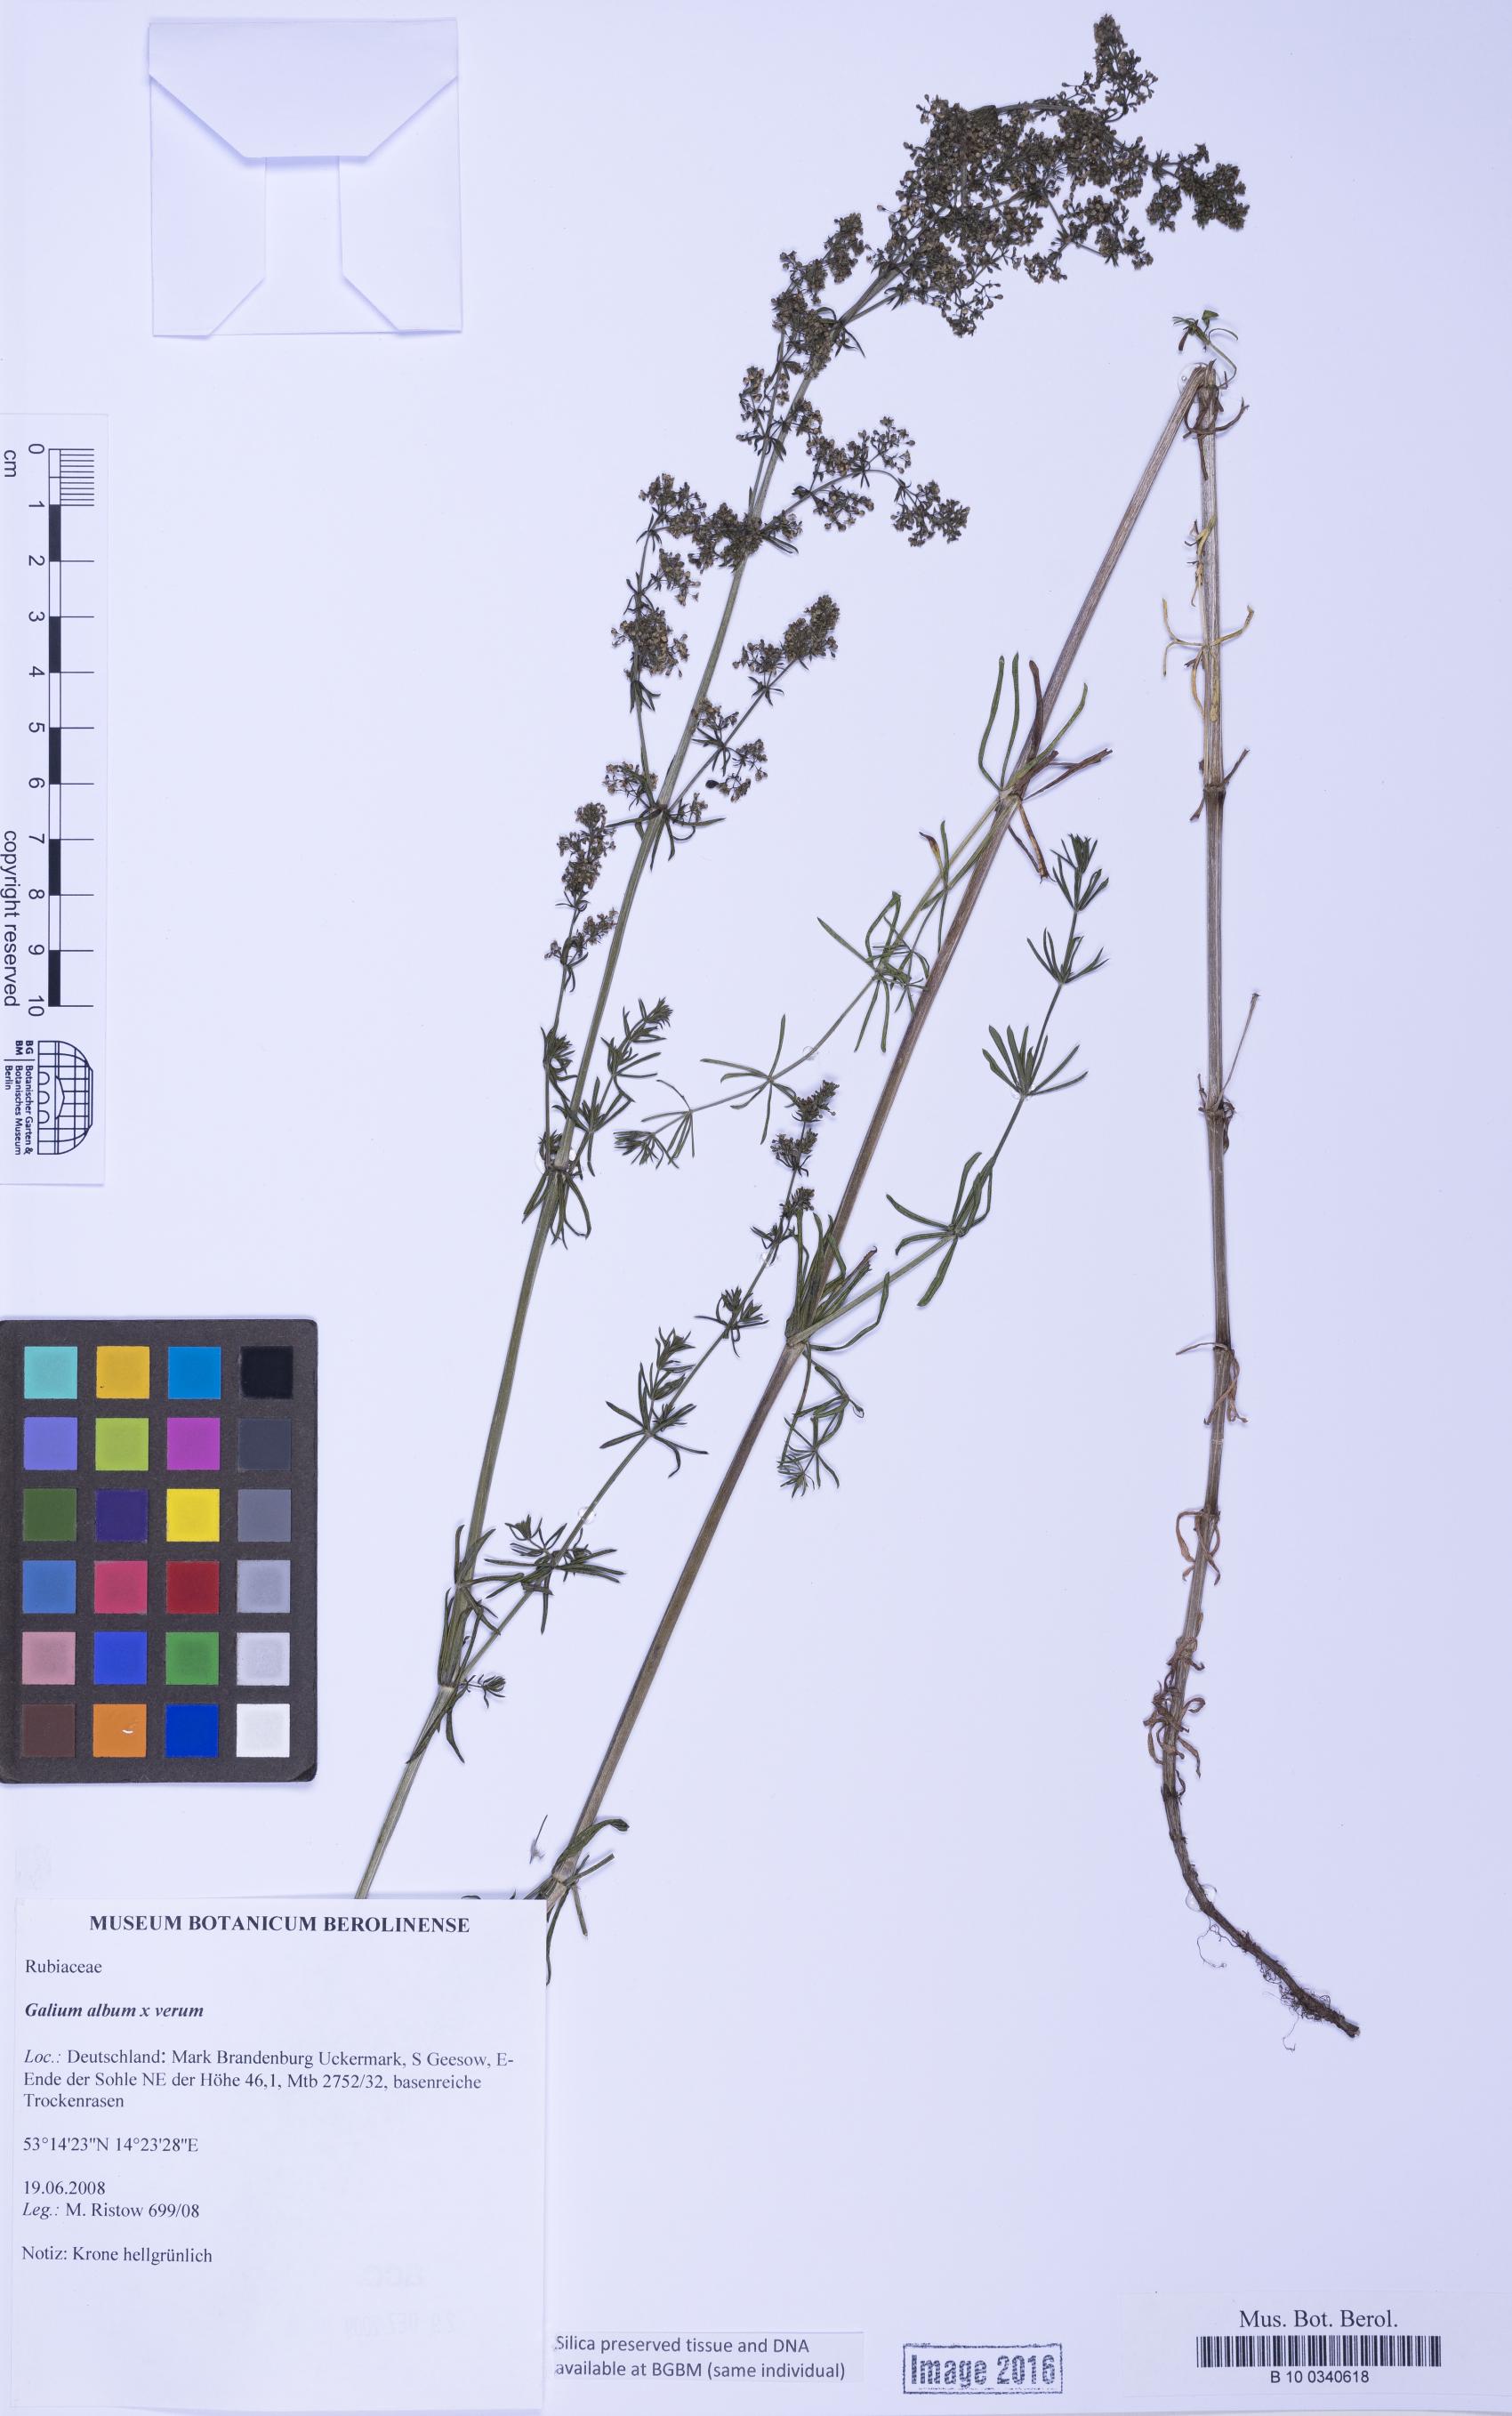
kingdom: Plantae
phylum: Tracheophyta
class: Magnoliopsida
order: Gentianales
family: Rubiaceae
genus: Galium
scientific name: Galium
